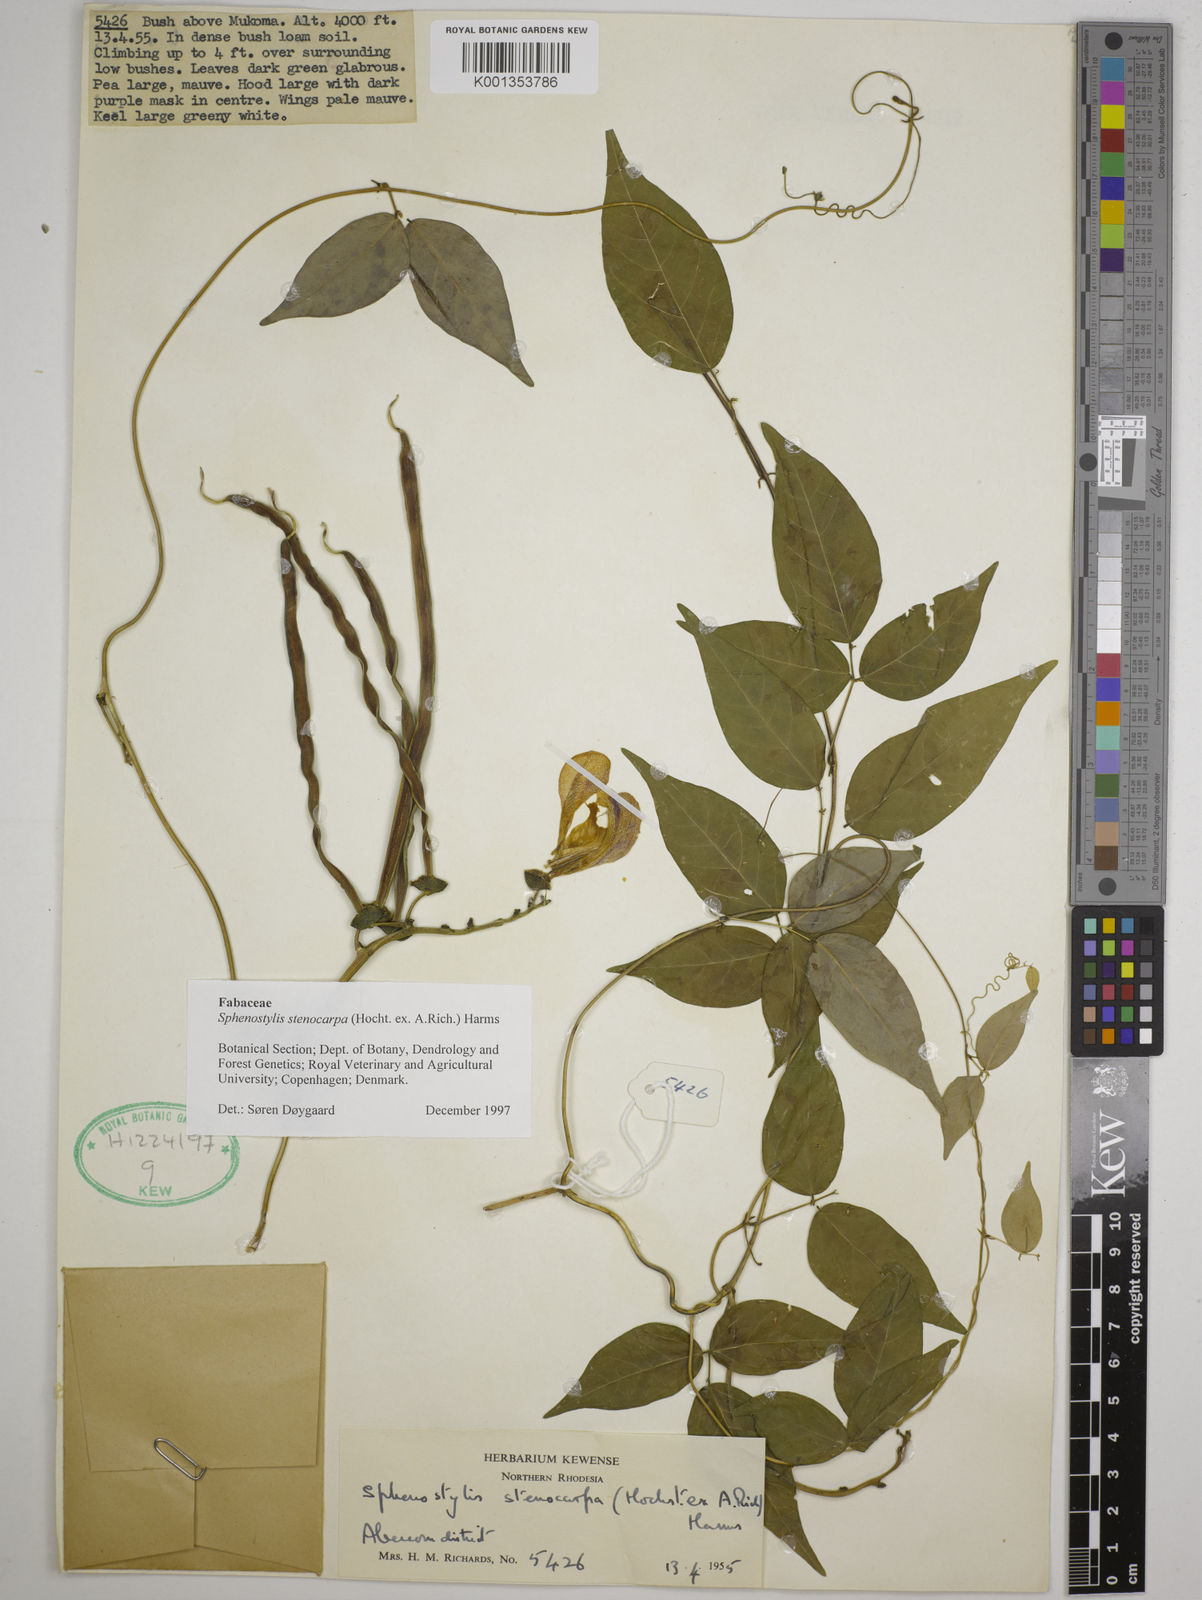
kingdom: Plantae
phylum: Tracheophyta
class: Magnoliopsida
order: Fabales
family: Fabaceae
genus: Sphenostylis
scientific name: Sphenostylis stenocarpa
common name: Yam-pea
